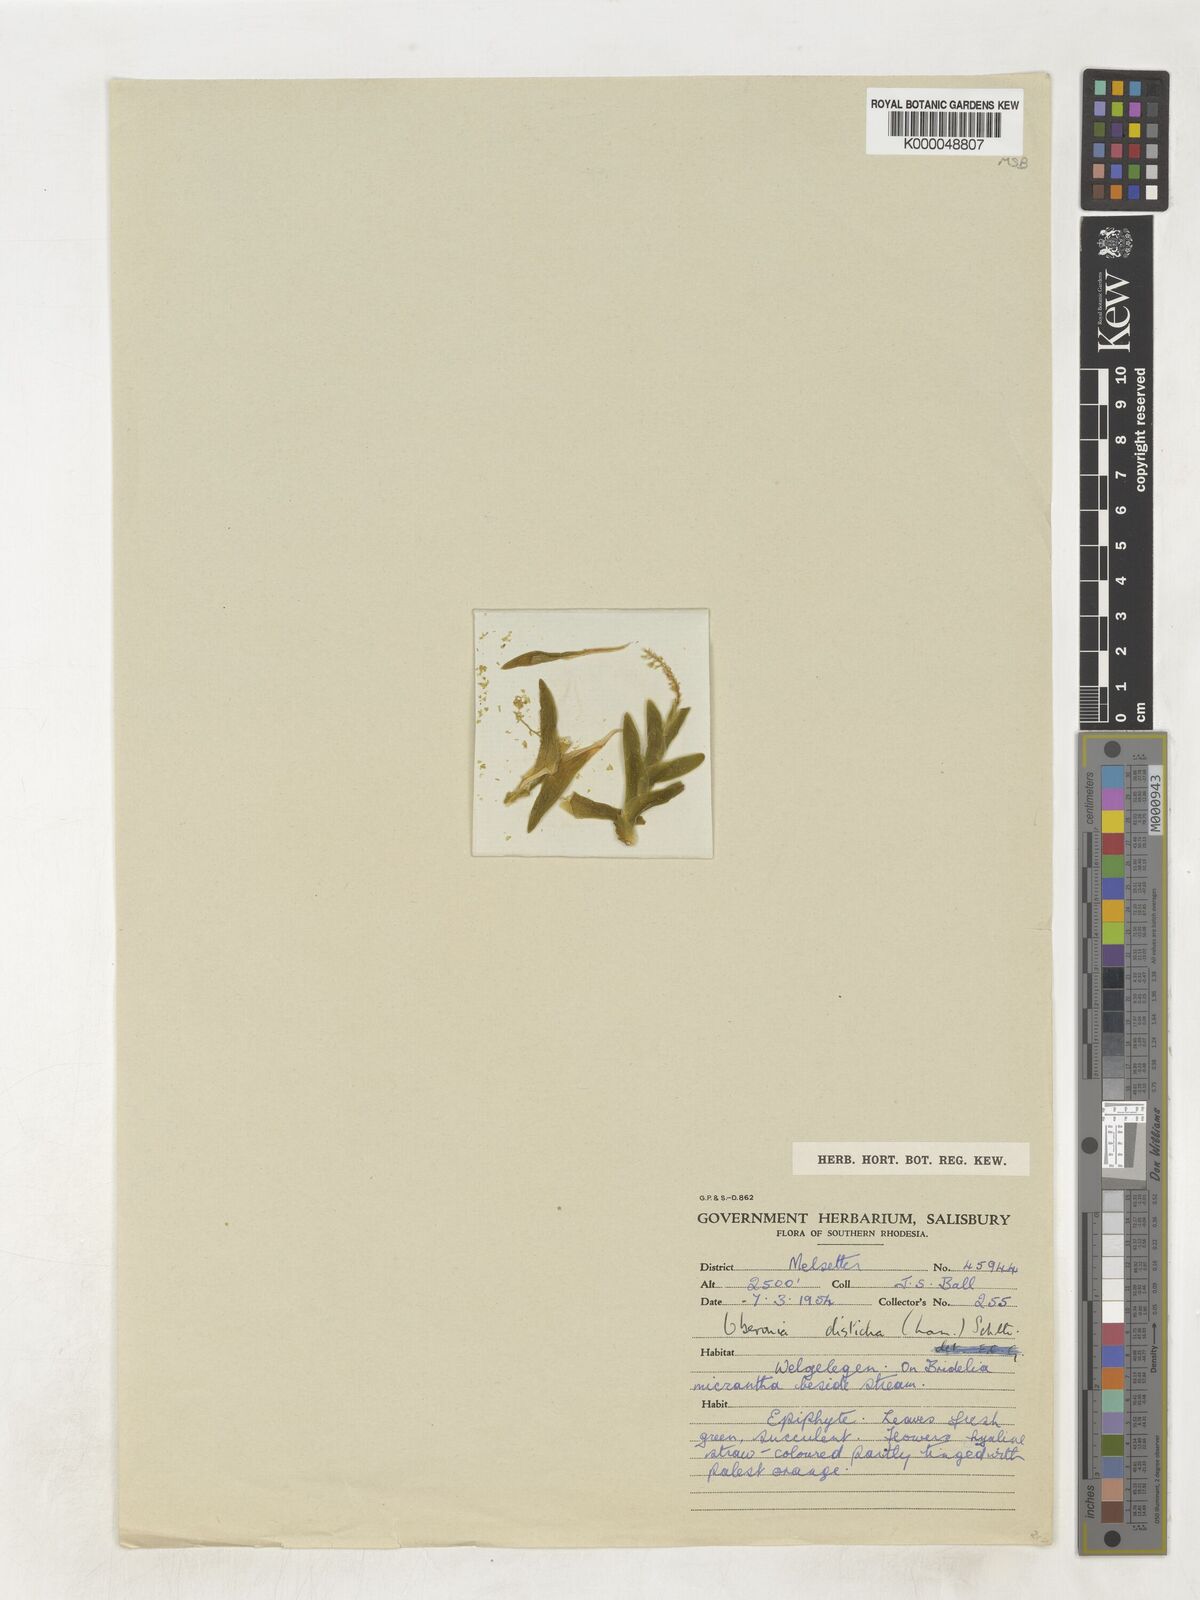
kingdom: Plantae
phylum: Tracheophyta
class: Liliopsida
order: Asparagales
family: Orchidaceae
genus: Oberonia
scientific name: Oberonia disticha
